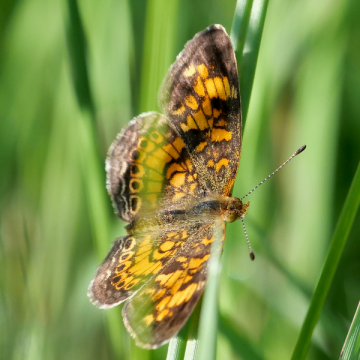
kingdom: Animalia
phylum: Arthropoda
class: Insecta
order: Lepidoptera
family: Nymphalidae
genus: Phyciodes
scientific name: Phyciodes tharos
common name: Pearl Crescent
